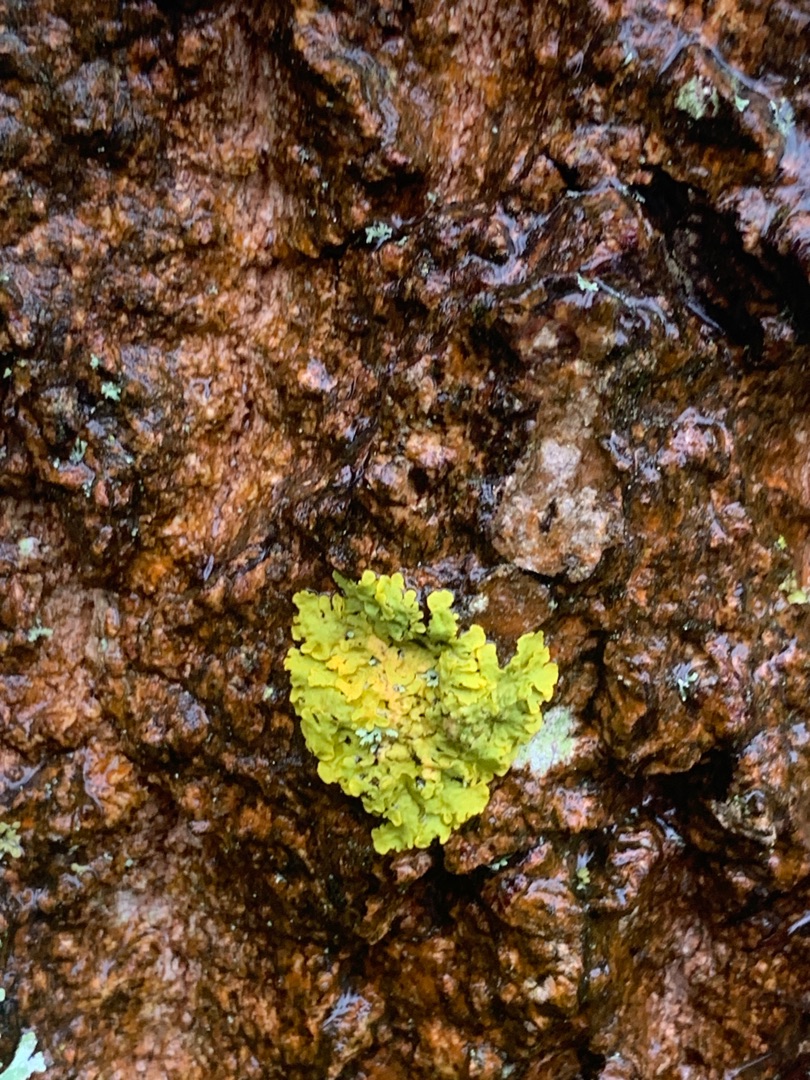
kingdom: Fungi
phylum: Ascomycota
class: Lecanoromycetes
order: Teloschistales
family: Teloschistaceae
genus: Xanthoria
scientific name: Xanthoria parietina
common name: Almindelig væggelav
